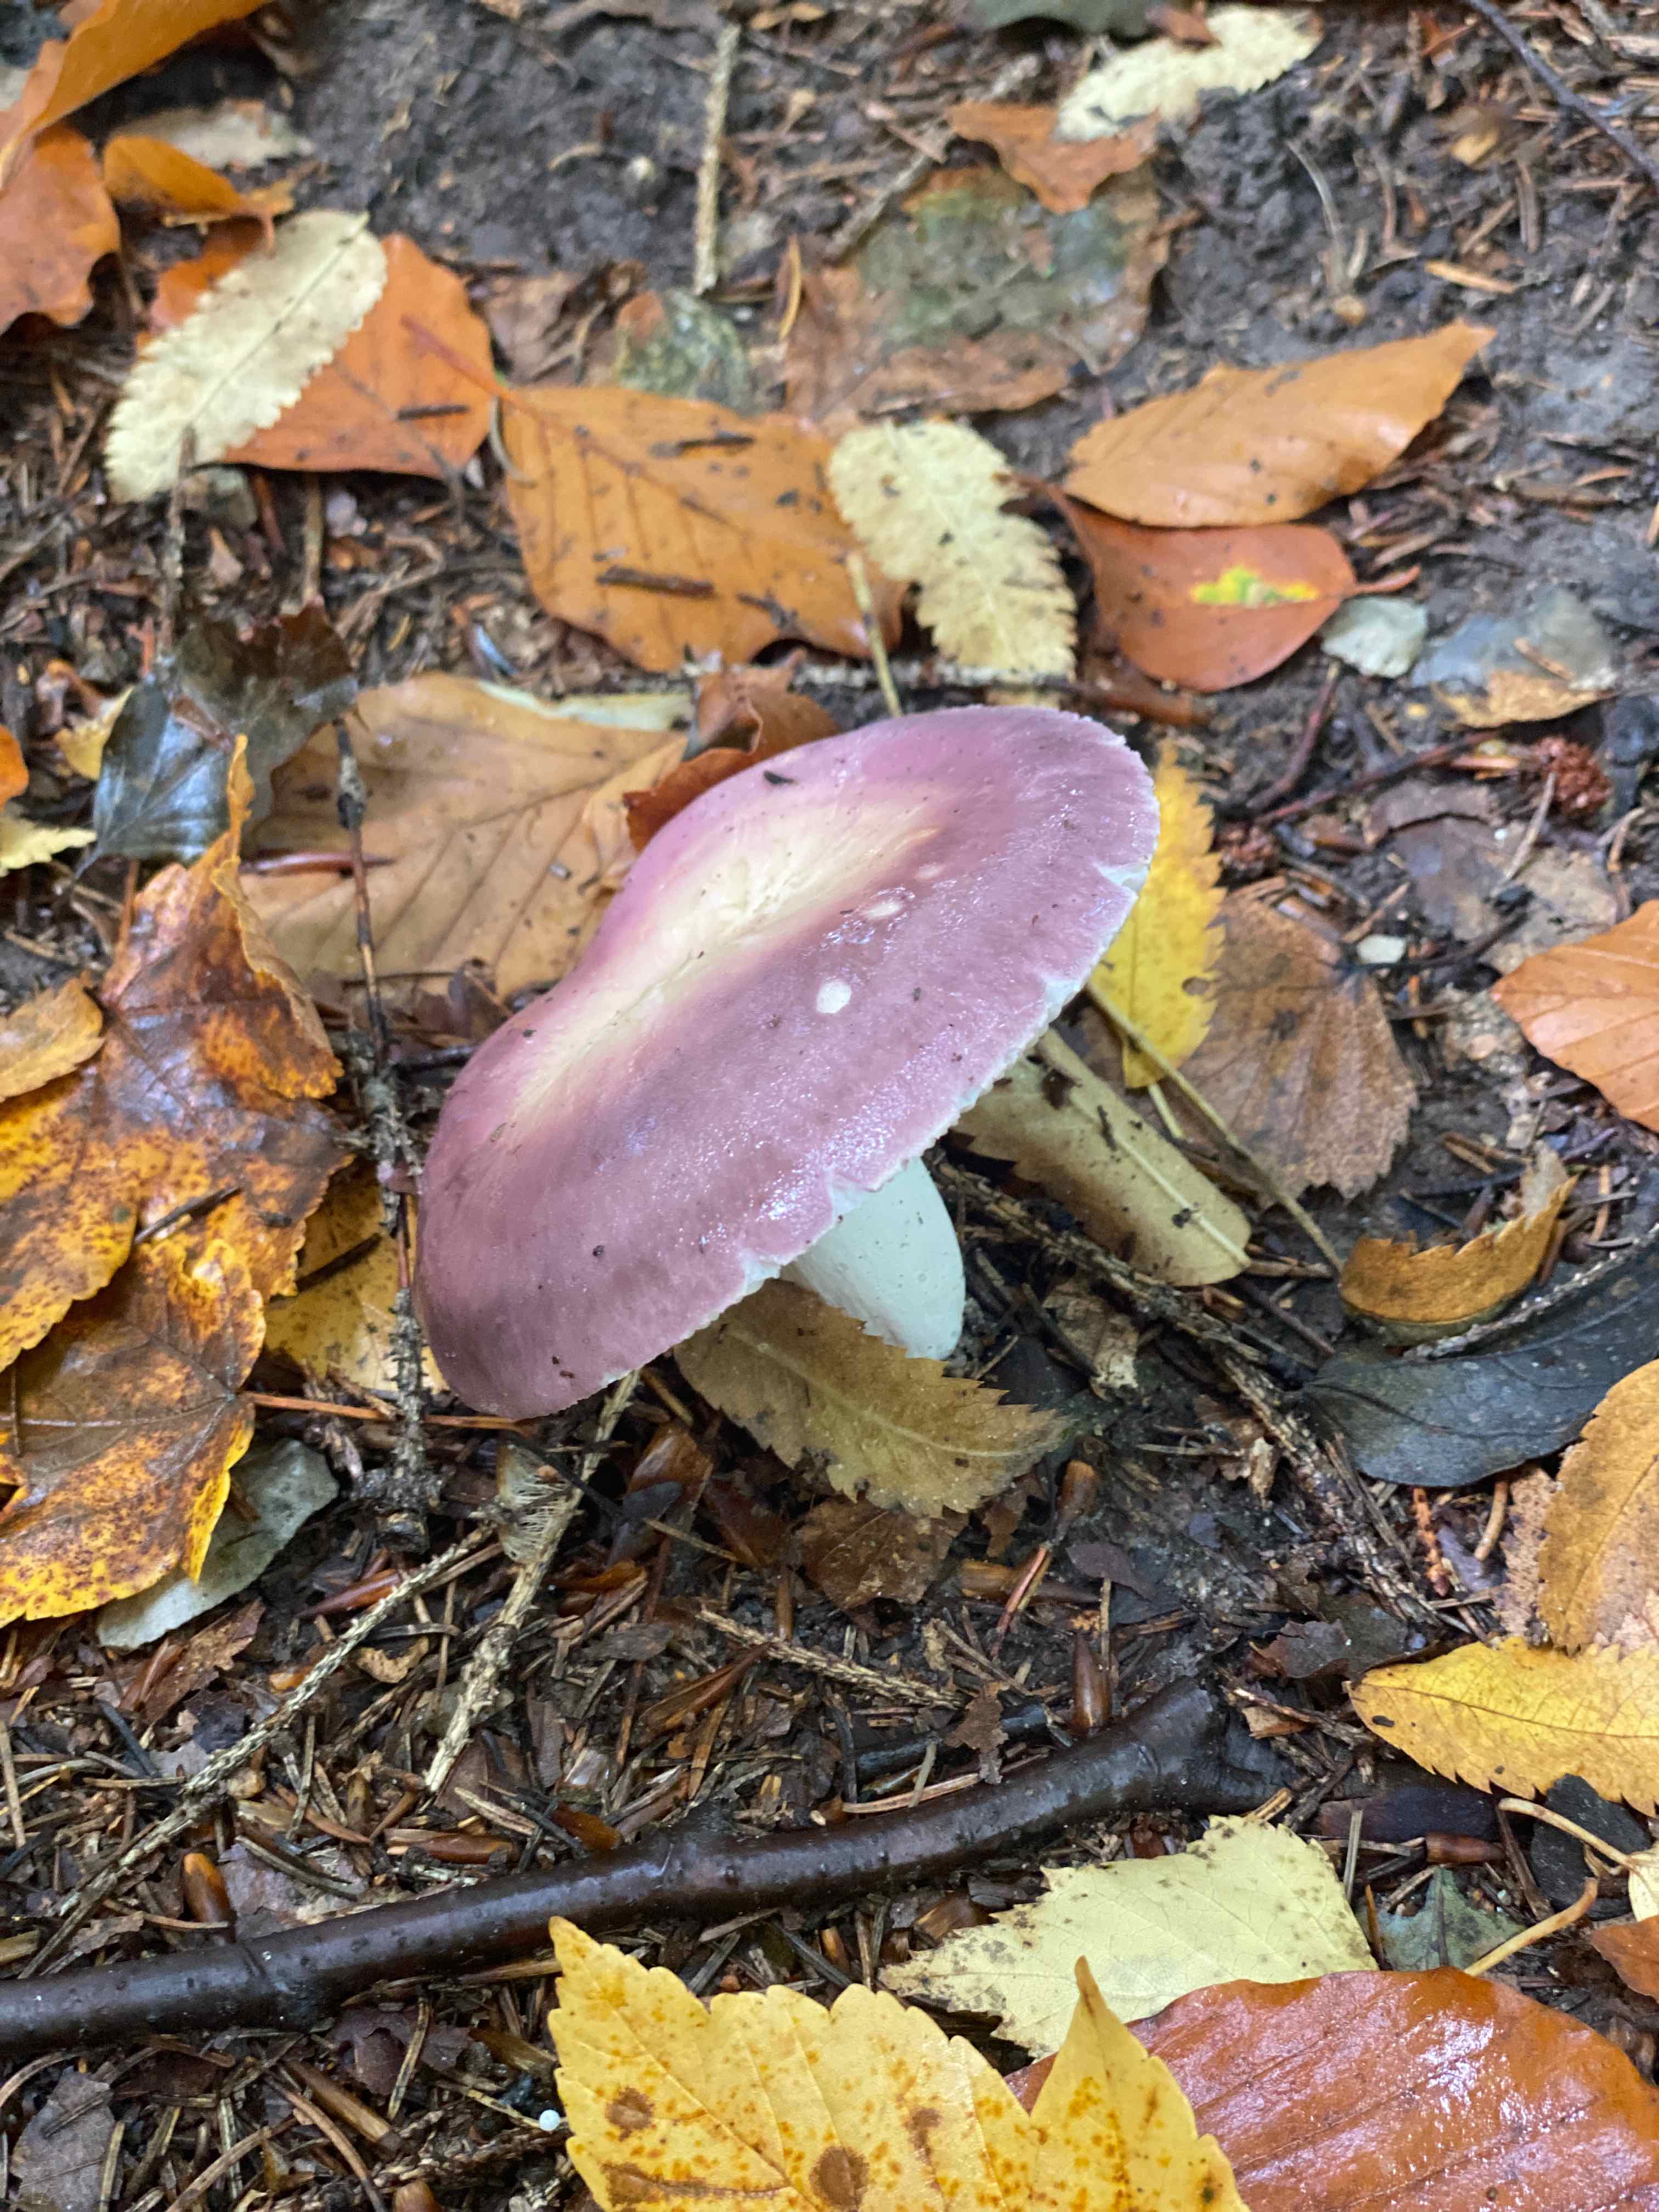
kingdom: Fungi
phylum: Basidiomycota
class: Agaricomycetes
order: Russulales
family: Russulaceae
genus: Russula
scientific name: Russula
